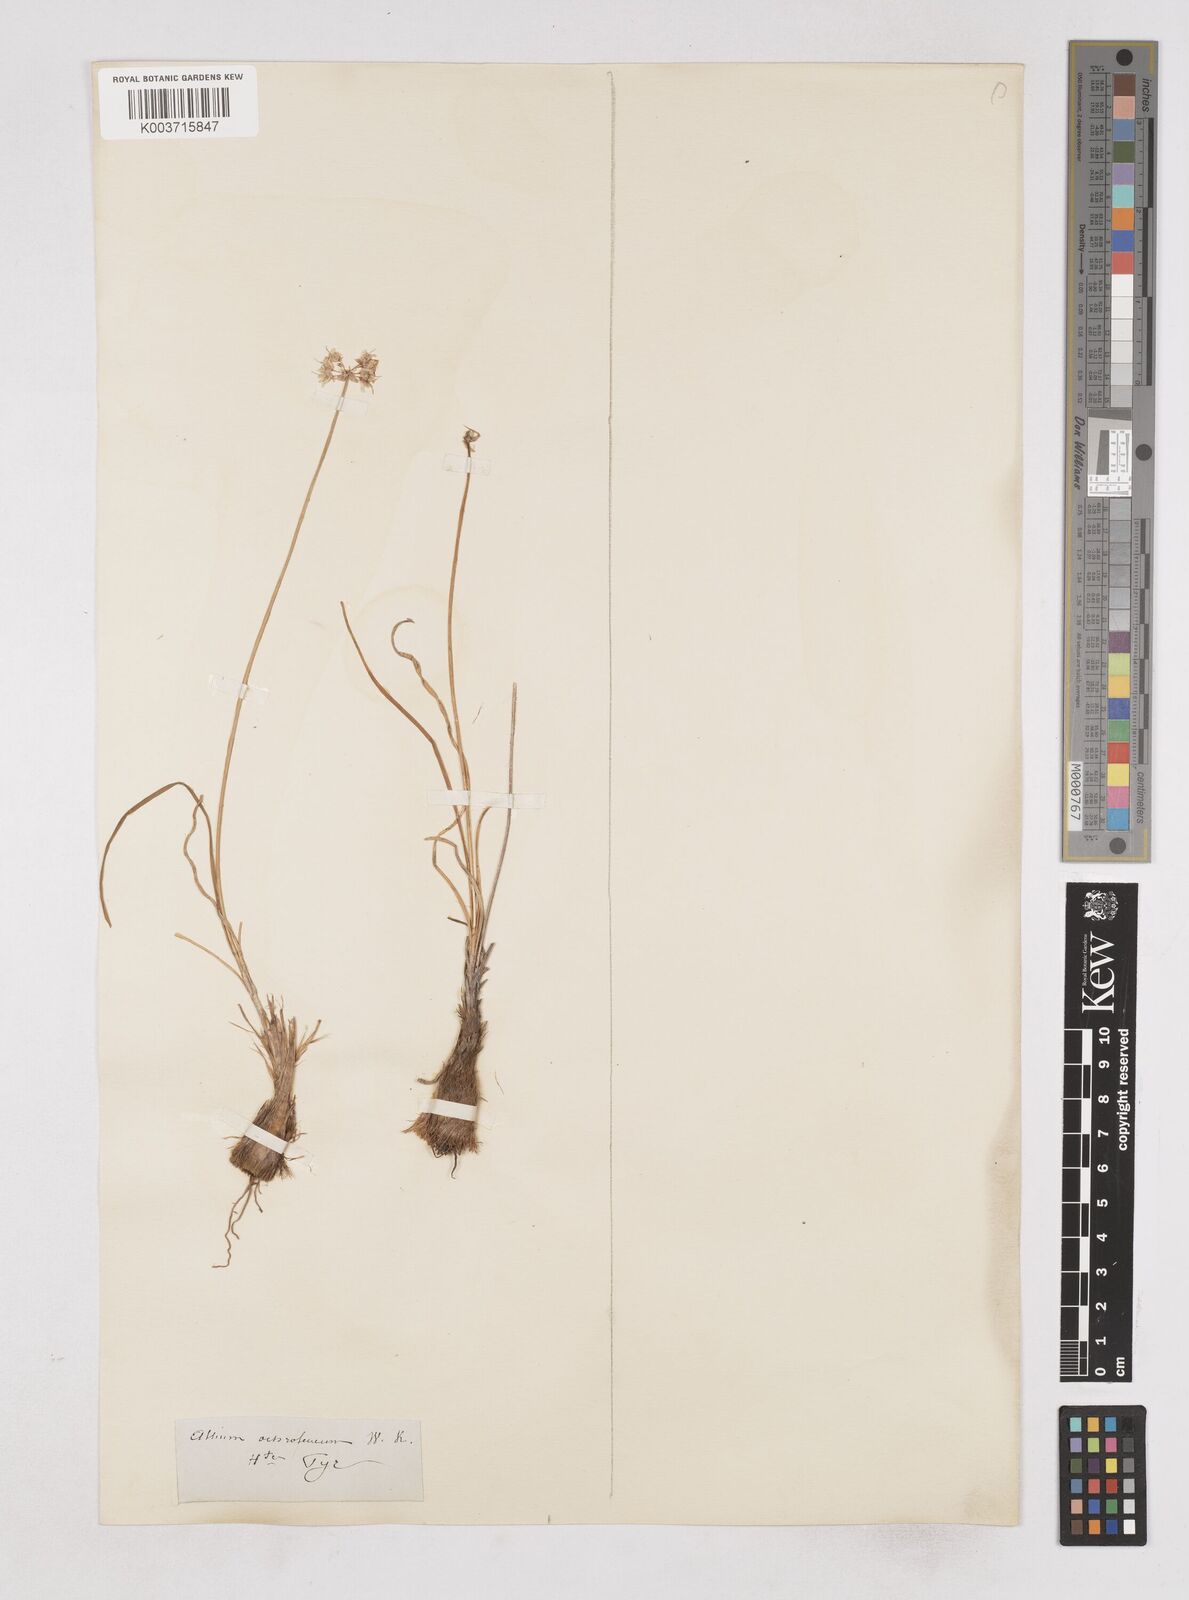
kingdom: Plantae
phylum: Tracheophyta
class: Liliopsida
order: Asparagales
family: Amaryllidaceae
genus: Allium
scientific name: Allium ericetorum
